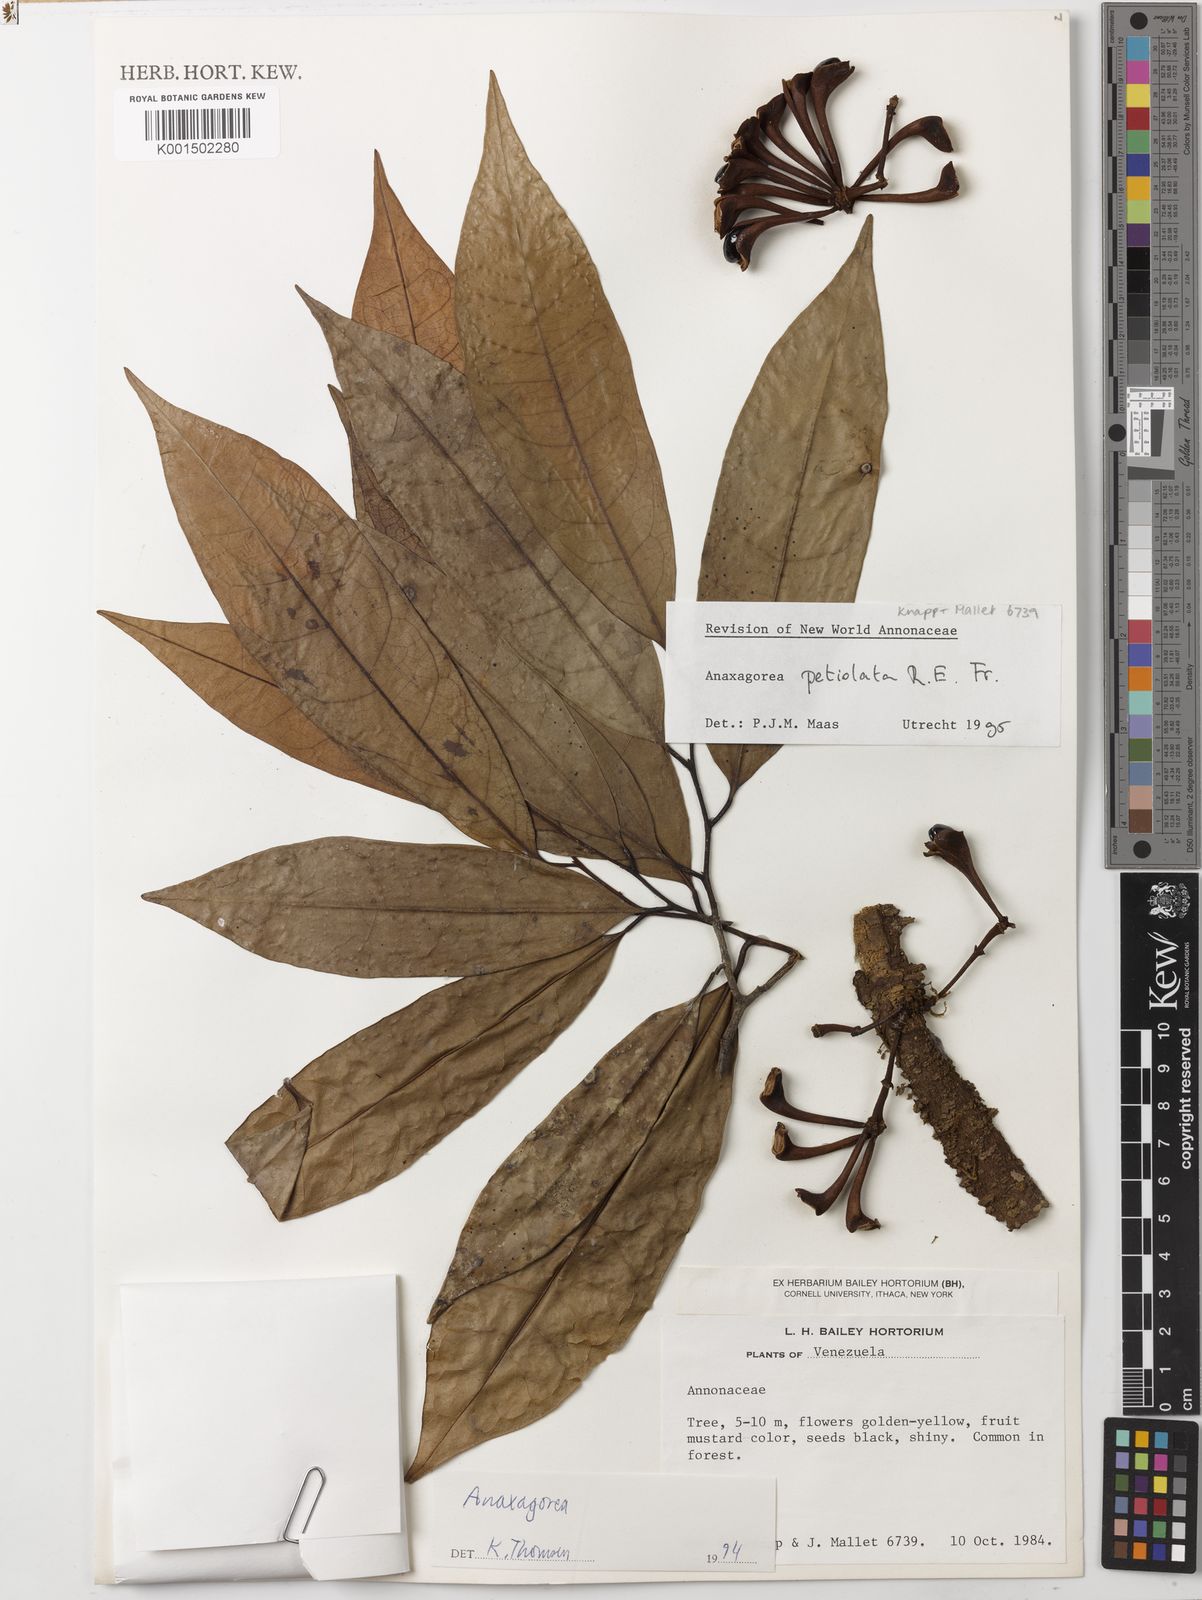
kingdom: Plantae
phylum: Tracheophyta
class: Magnoliopsida
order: Magnoliales
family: Annonaceae
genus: Anaxagorea
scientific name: Anaxagorea petiolata
